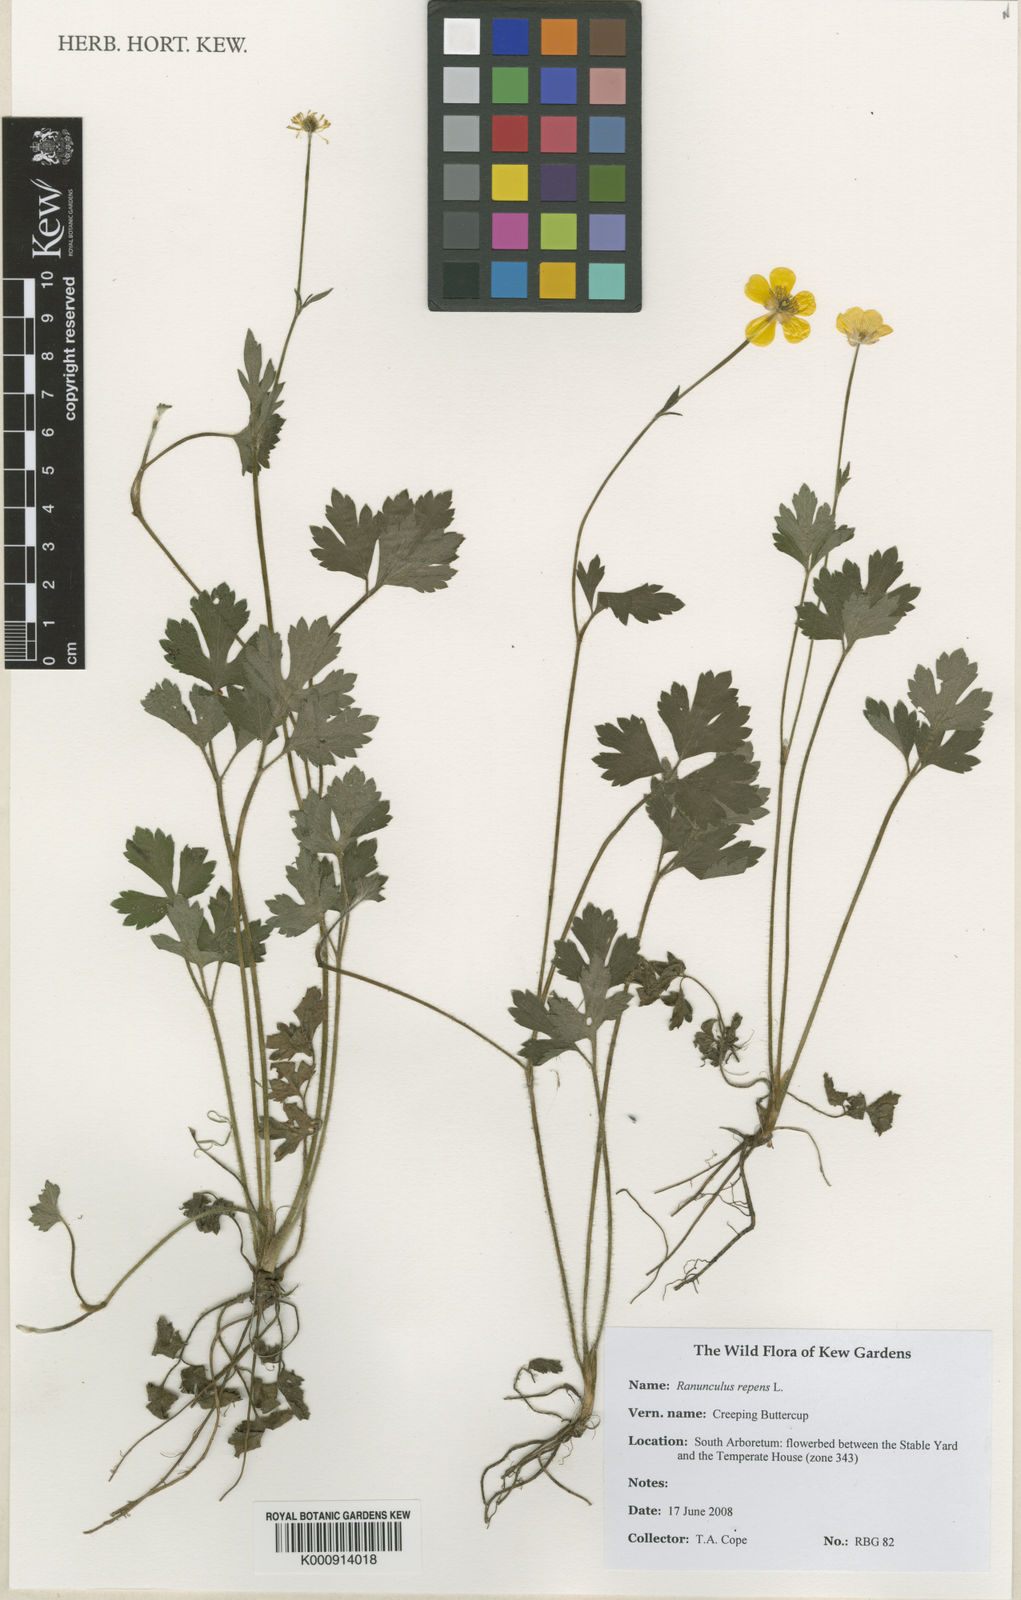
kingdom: Plantae
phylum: Tracheophyta
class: Magnoliopsida
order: Ranunculales
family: Ranunculaceae
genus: Ranunculus
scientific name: Ranunculus repens
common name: Creeping buttercup
